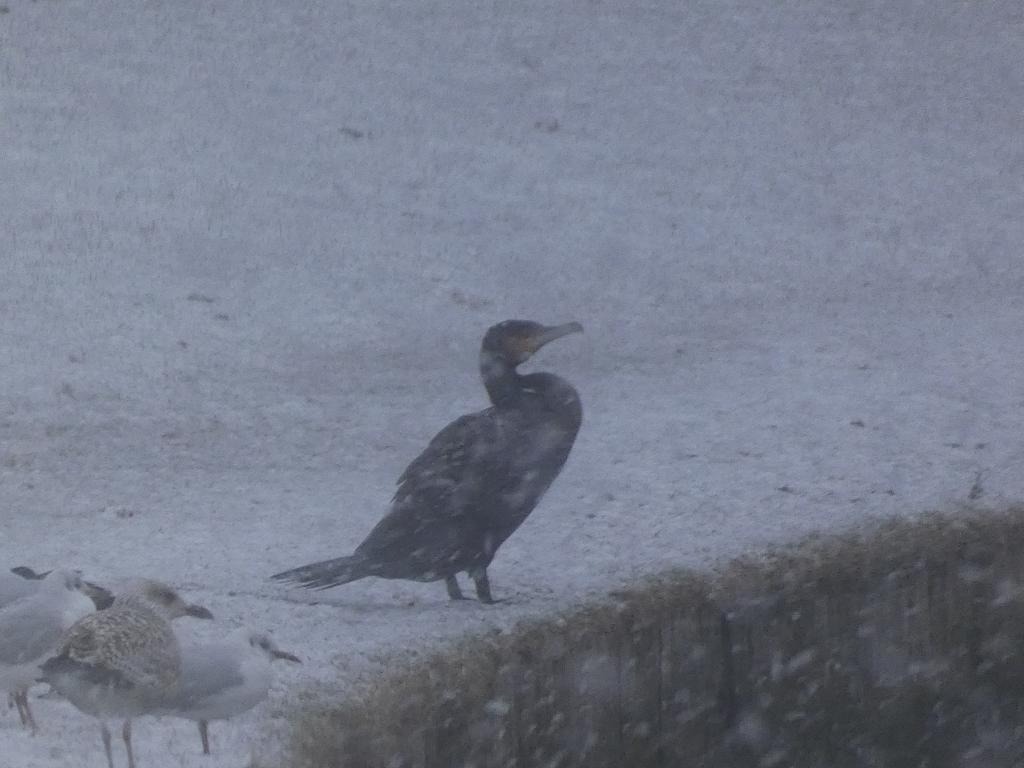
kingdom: Animalia
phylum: Chordata
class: Aves
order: Suliformes
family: Phalacrocoracidae
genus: Phalacrocorax
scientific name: Phalacrocorax carbo
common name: Skarv
